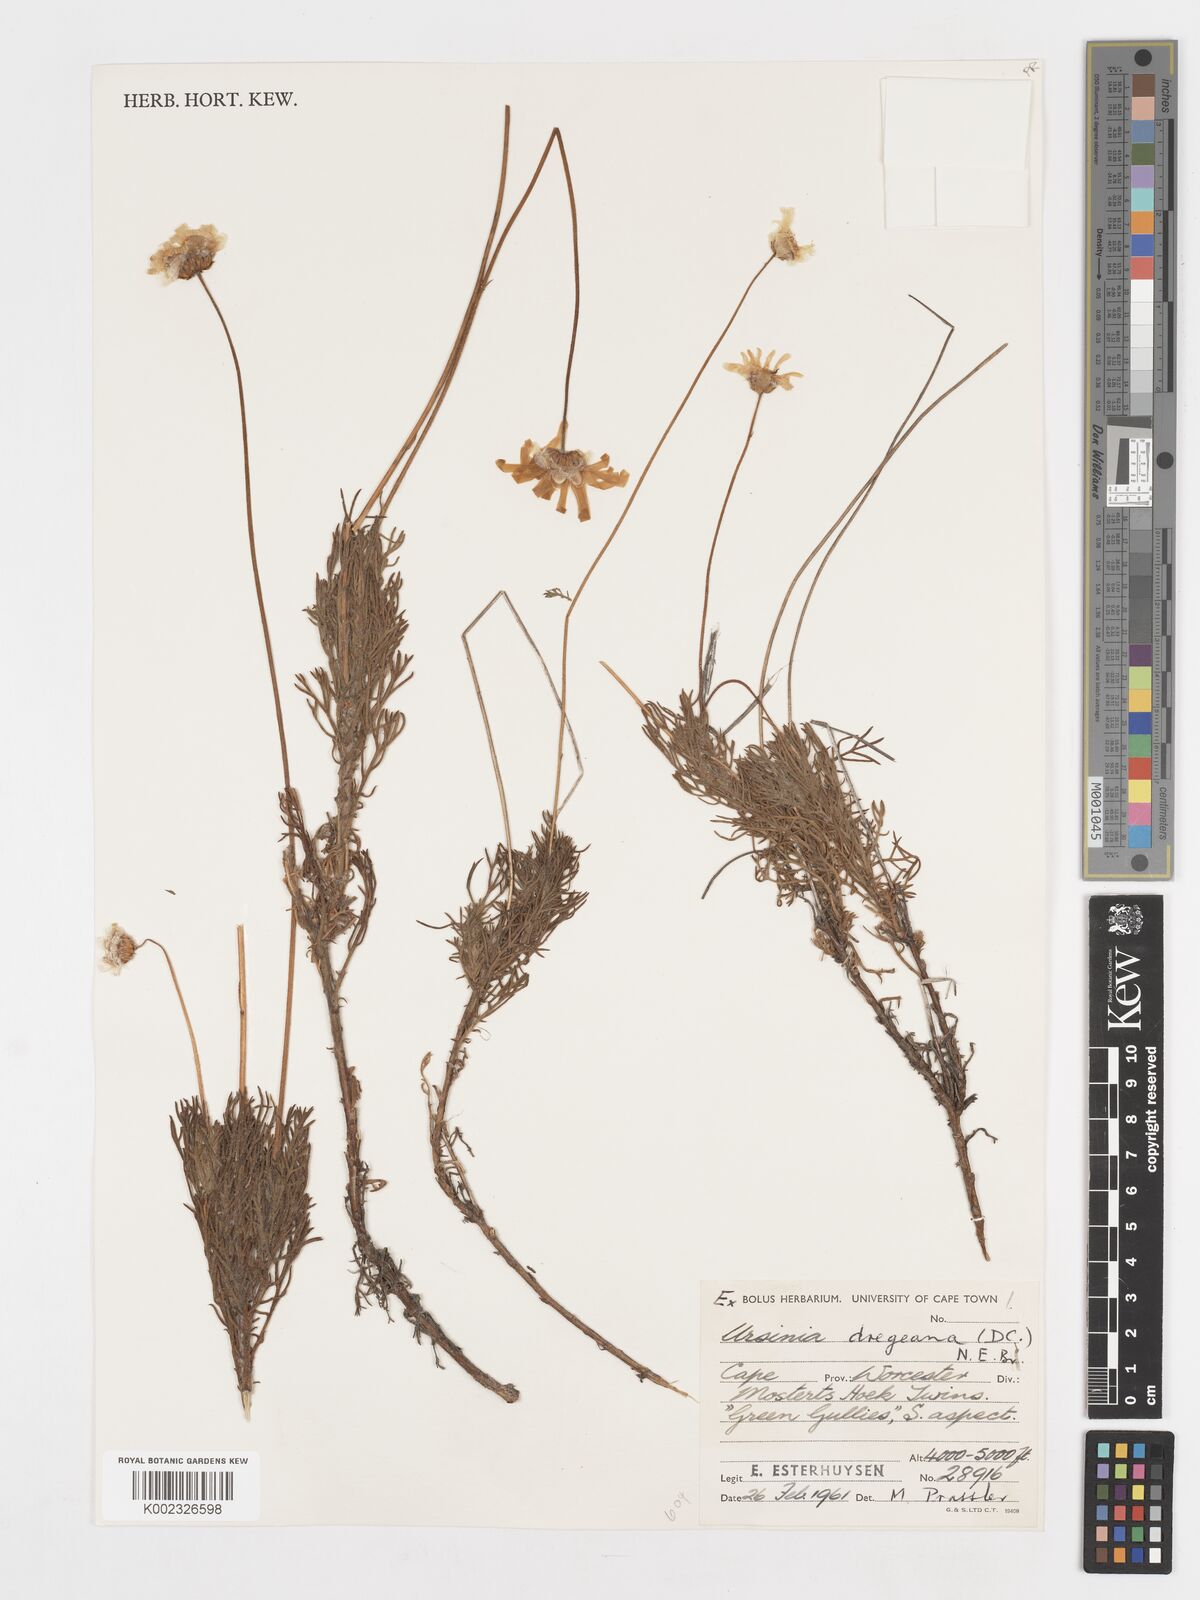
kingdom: Plantae
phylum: Tracheophyta
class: Magnoliopsida
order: Asterales
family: Asteraceae
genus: Ursinia
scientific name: Ursinia dregeana
